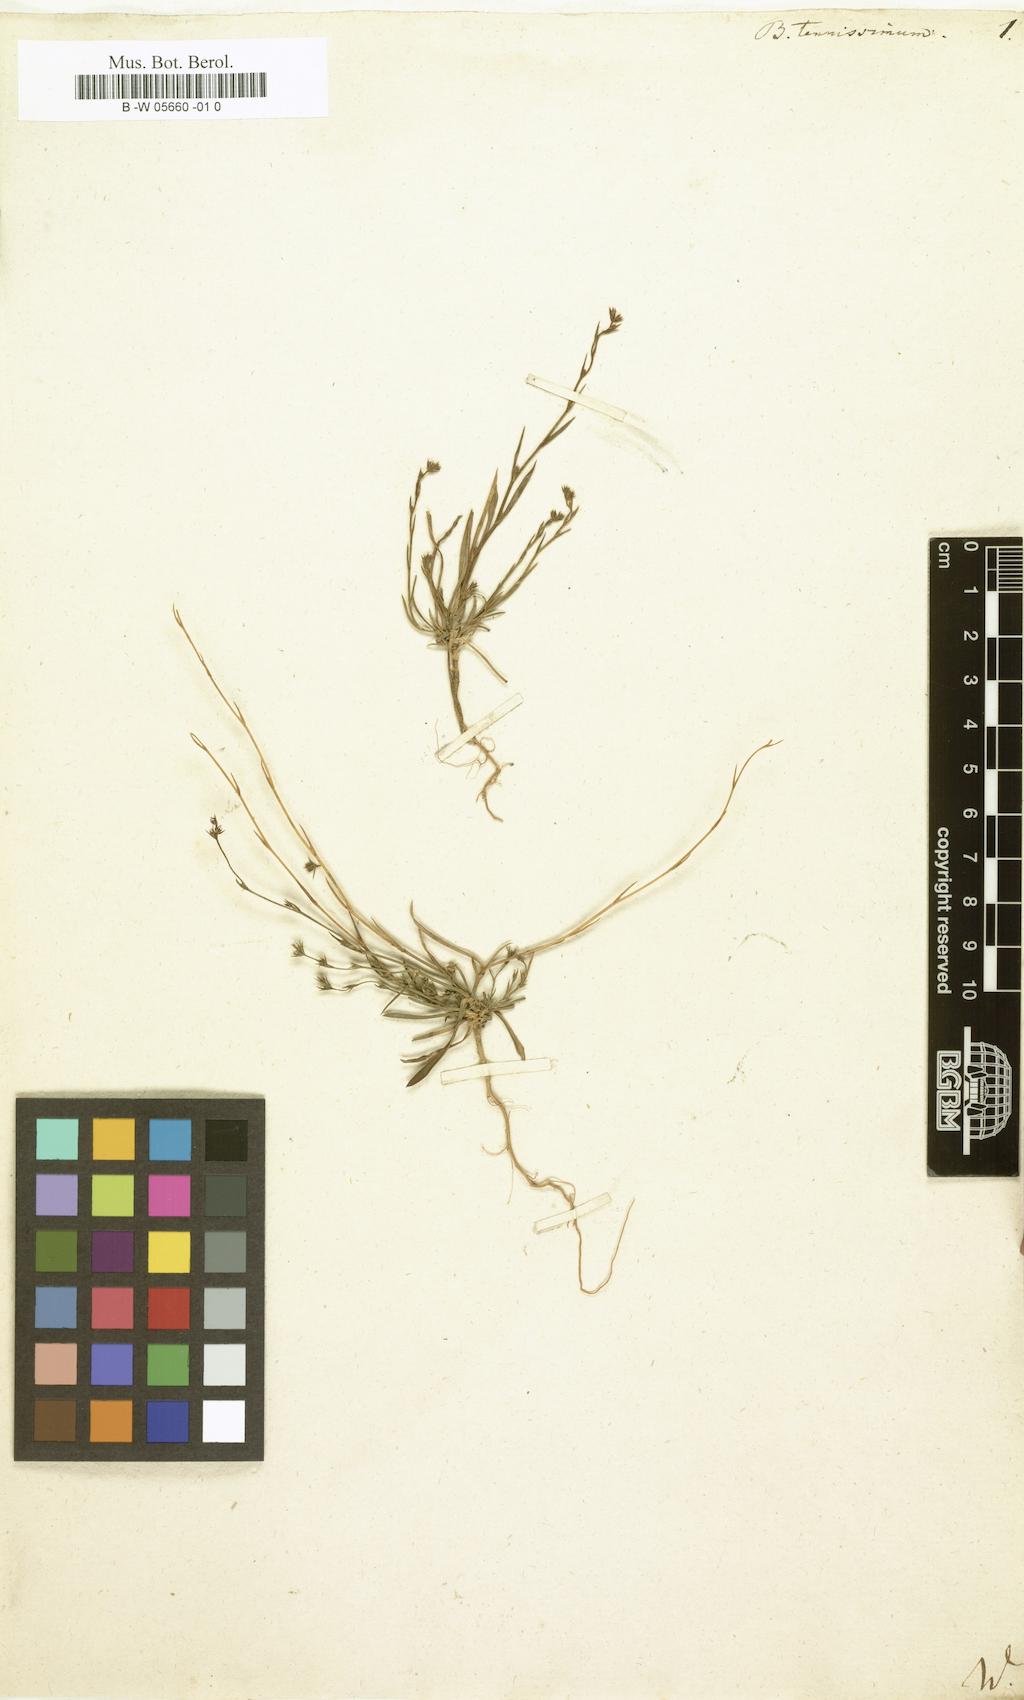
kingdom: Plantae
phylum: Tracheophyta
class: Magnoliopsida
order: Apiales
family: Apiaceae
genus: Bupleurum
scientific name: Bupleurum tenuissimum
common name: Slender hare's-ear
